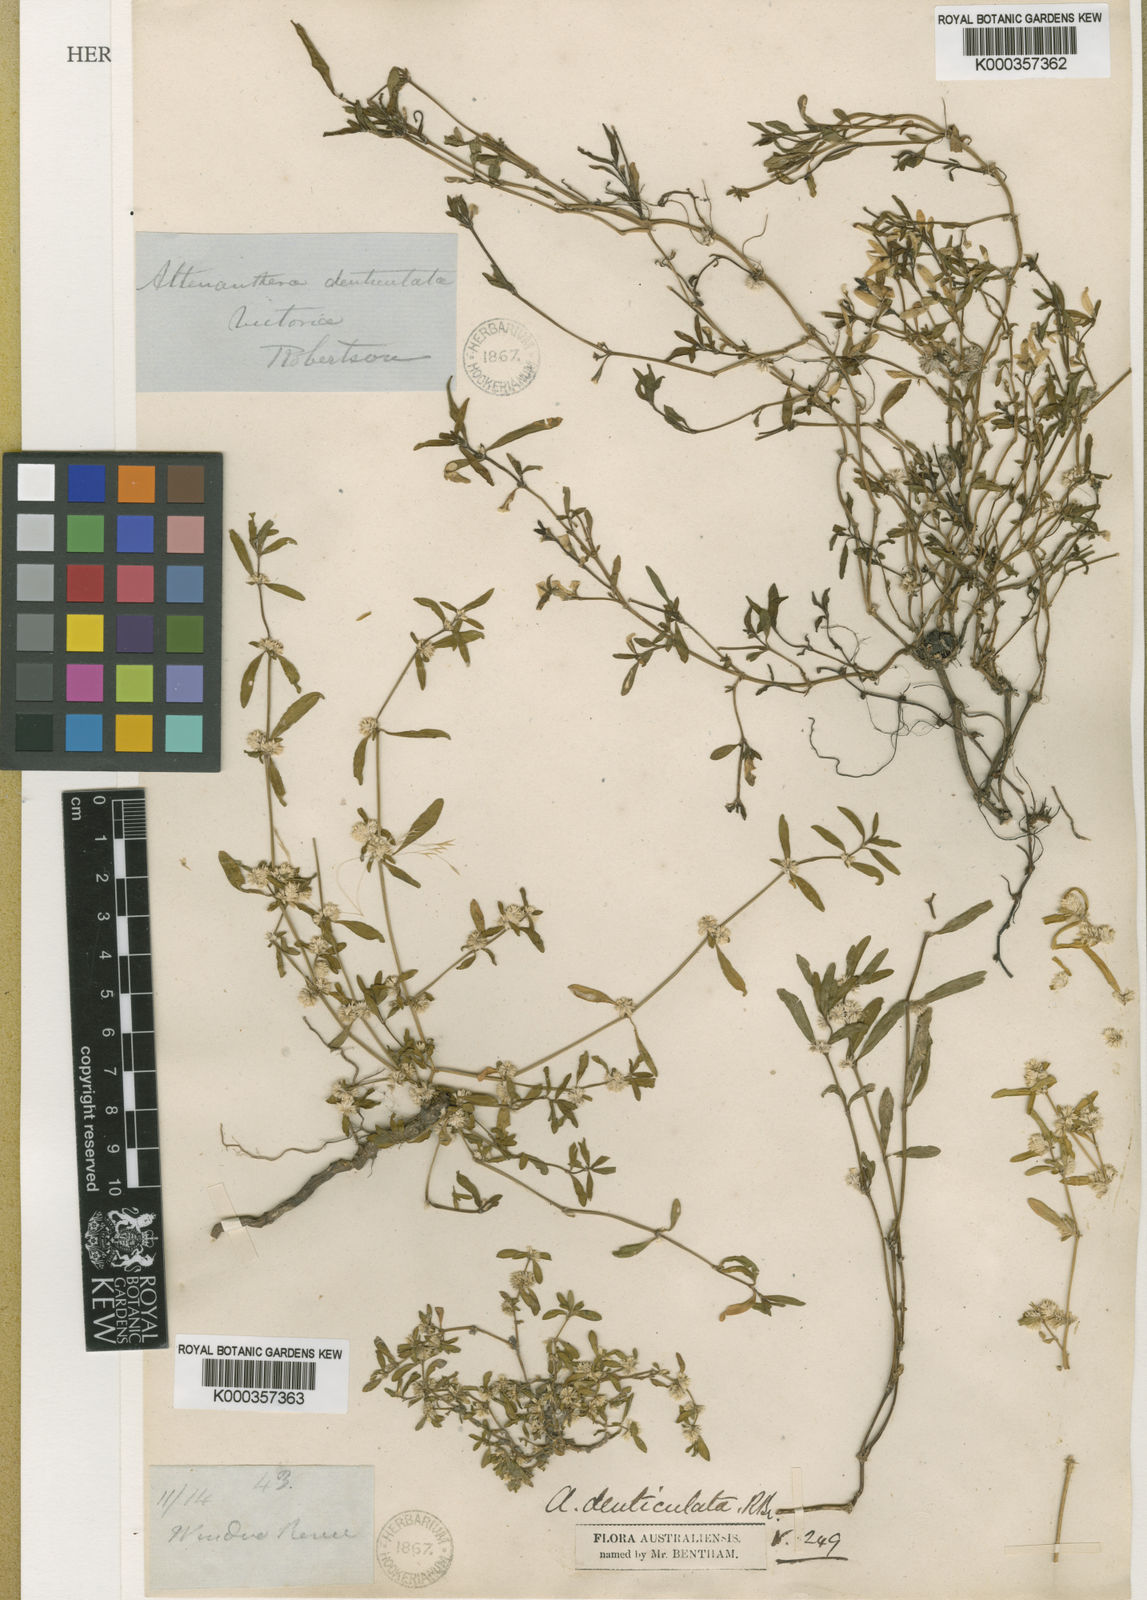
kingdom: Plantae
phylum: Tracheophyta
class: Magnoliopsida
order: Caryophyllales
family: Amaranthaceae
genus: Alternanthera
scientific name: Alternanthera denticulata
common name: Lesser joyweed
